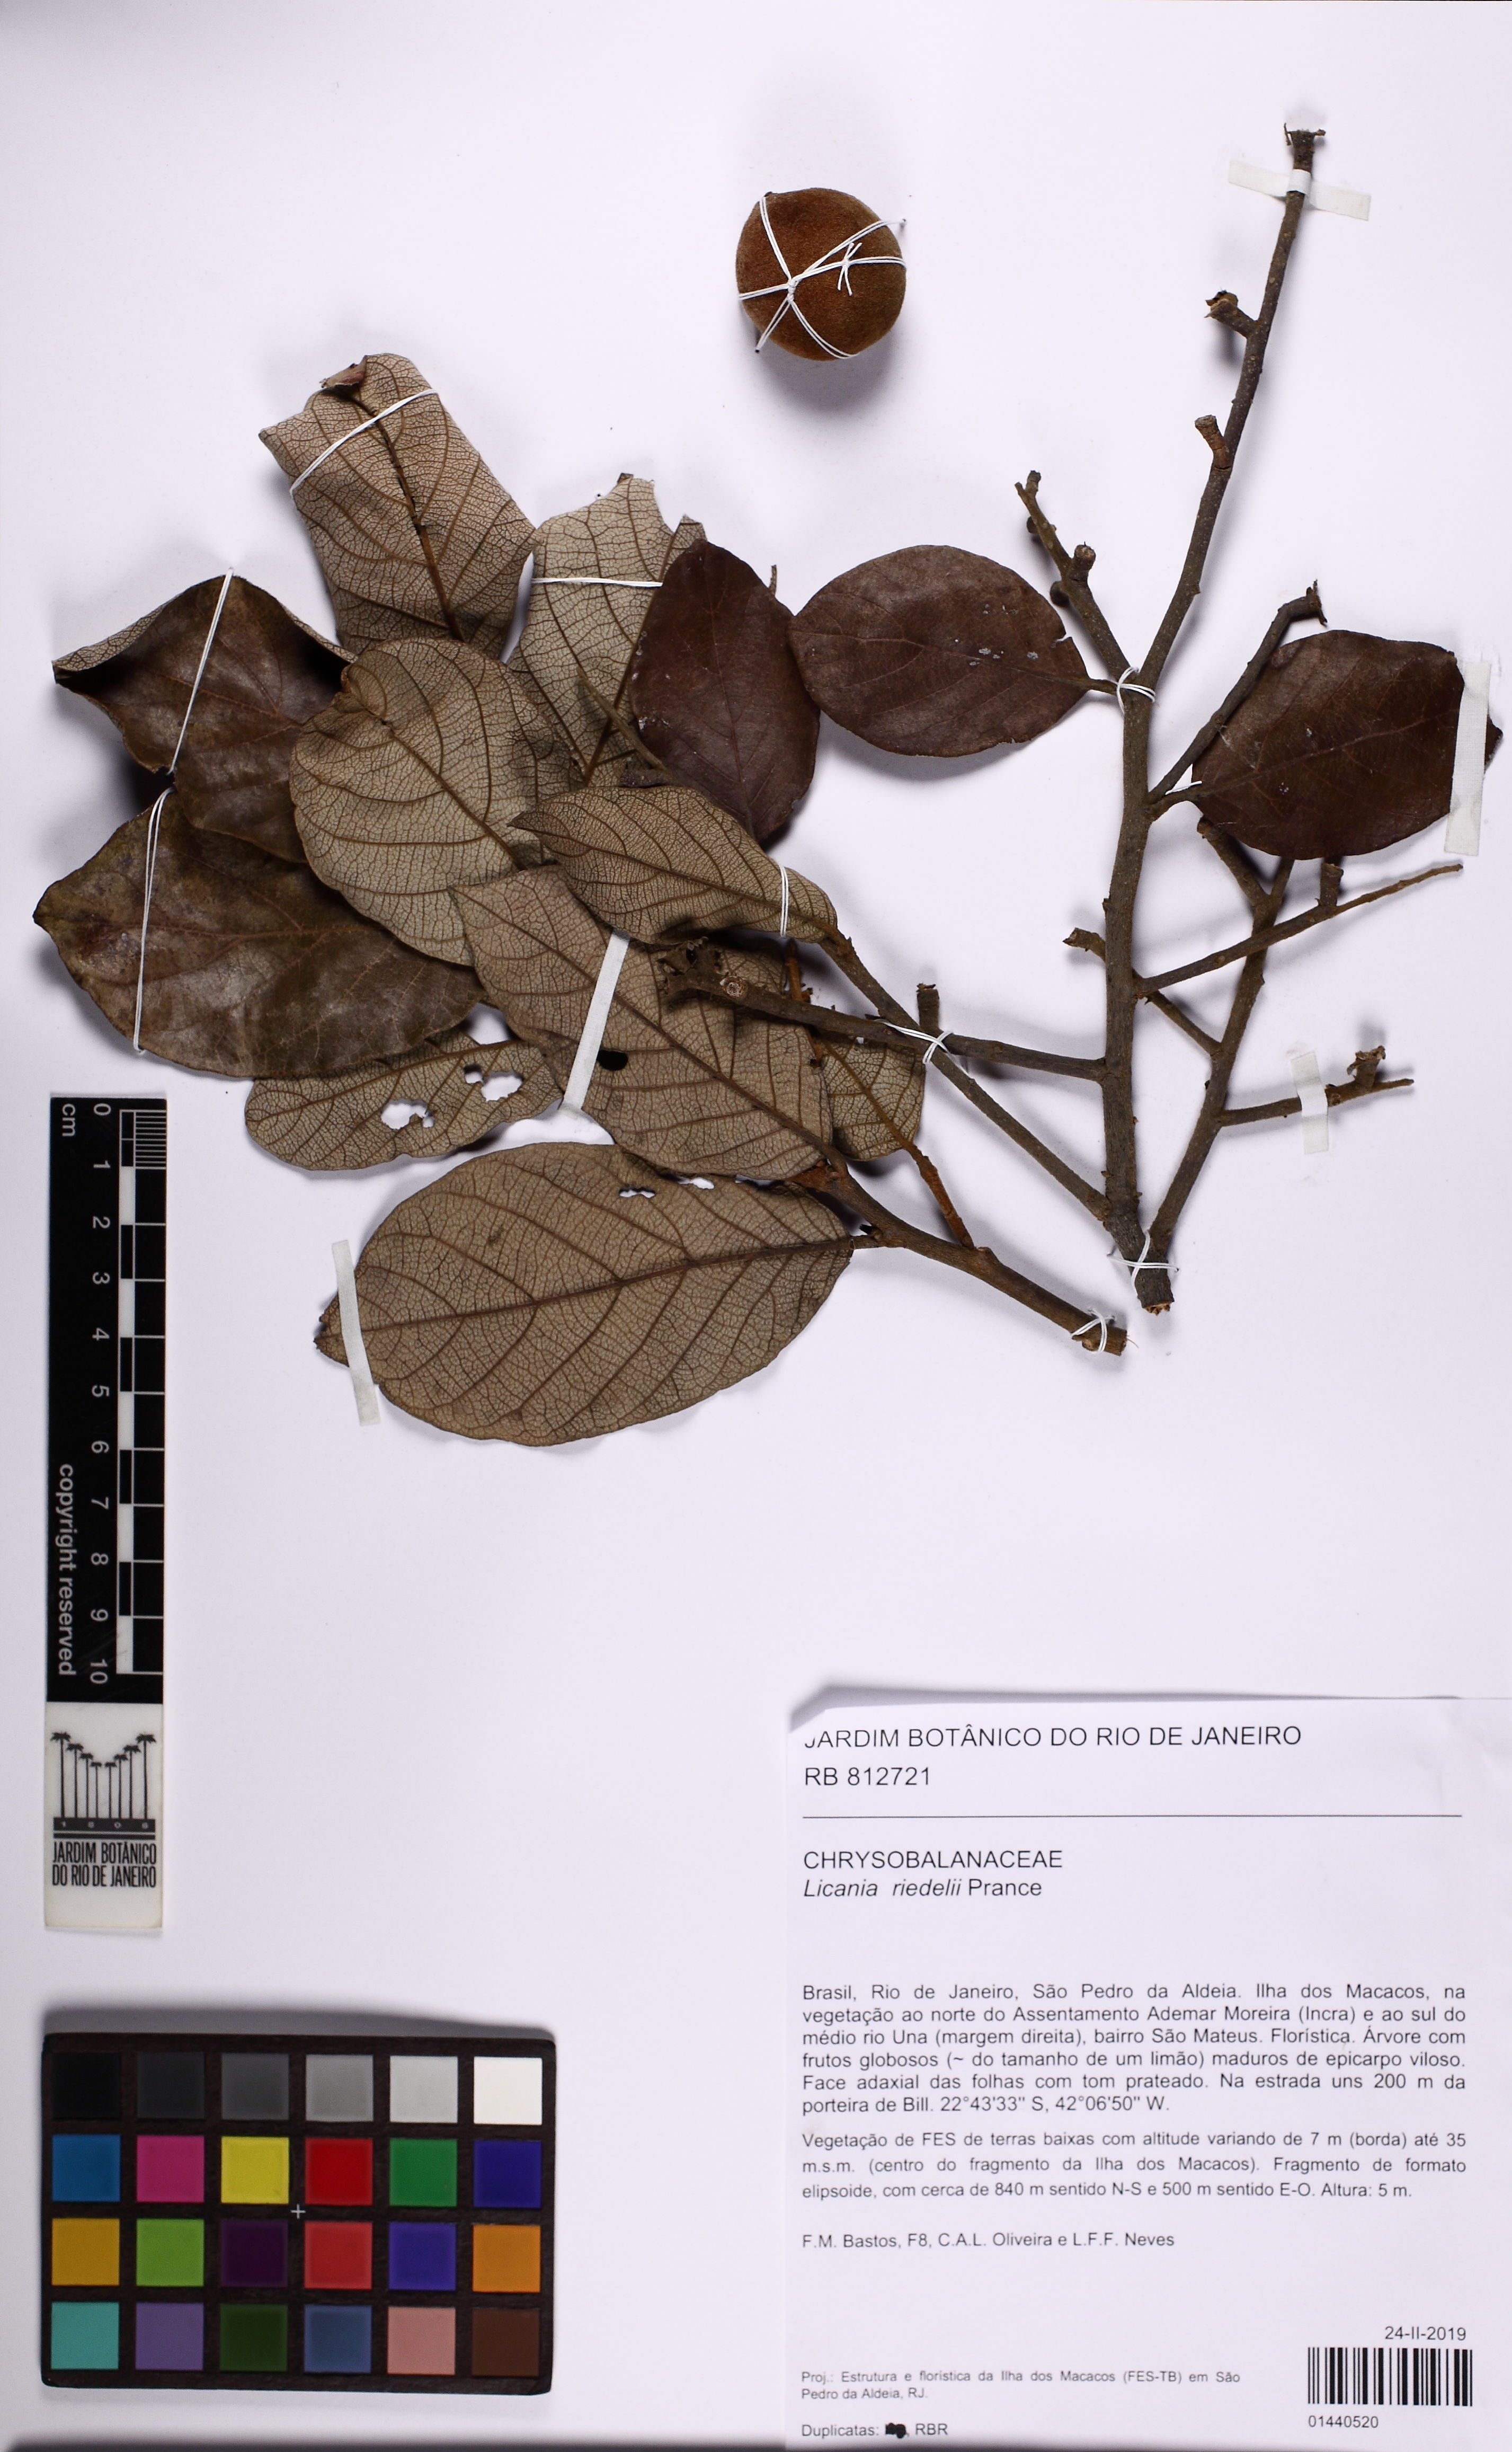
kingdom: Plantae
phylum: Tracheophyta
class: Magnoliopsida
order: Malpighiales
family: Chrysobalanaceae
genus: Licania
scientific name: Licania riedelii
